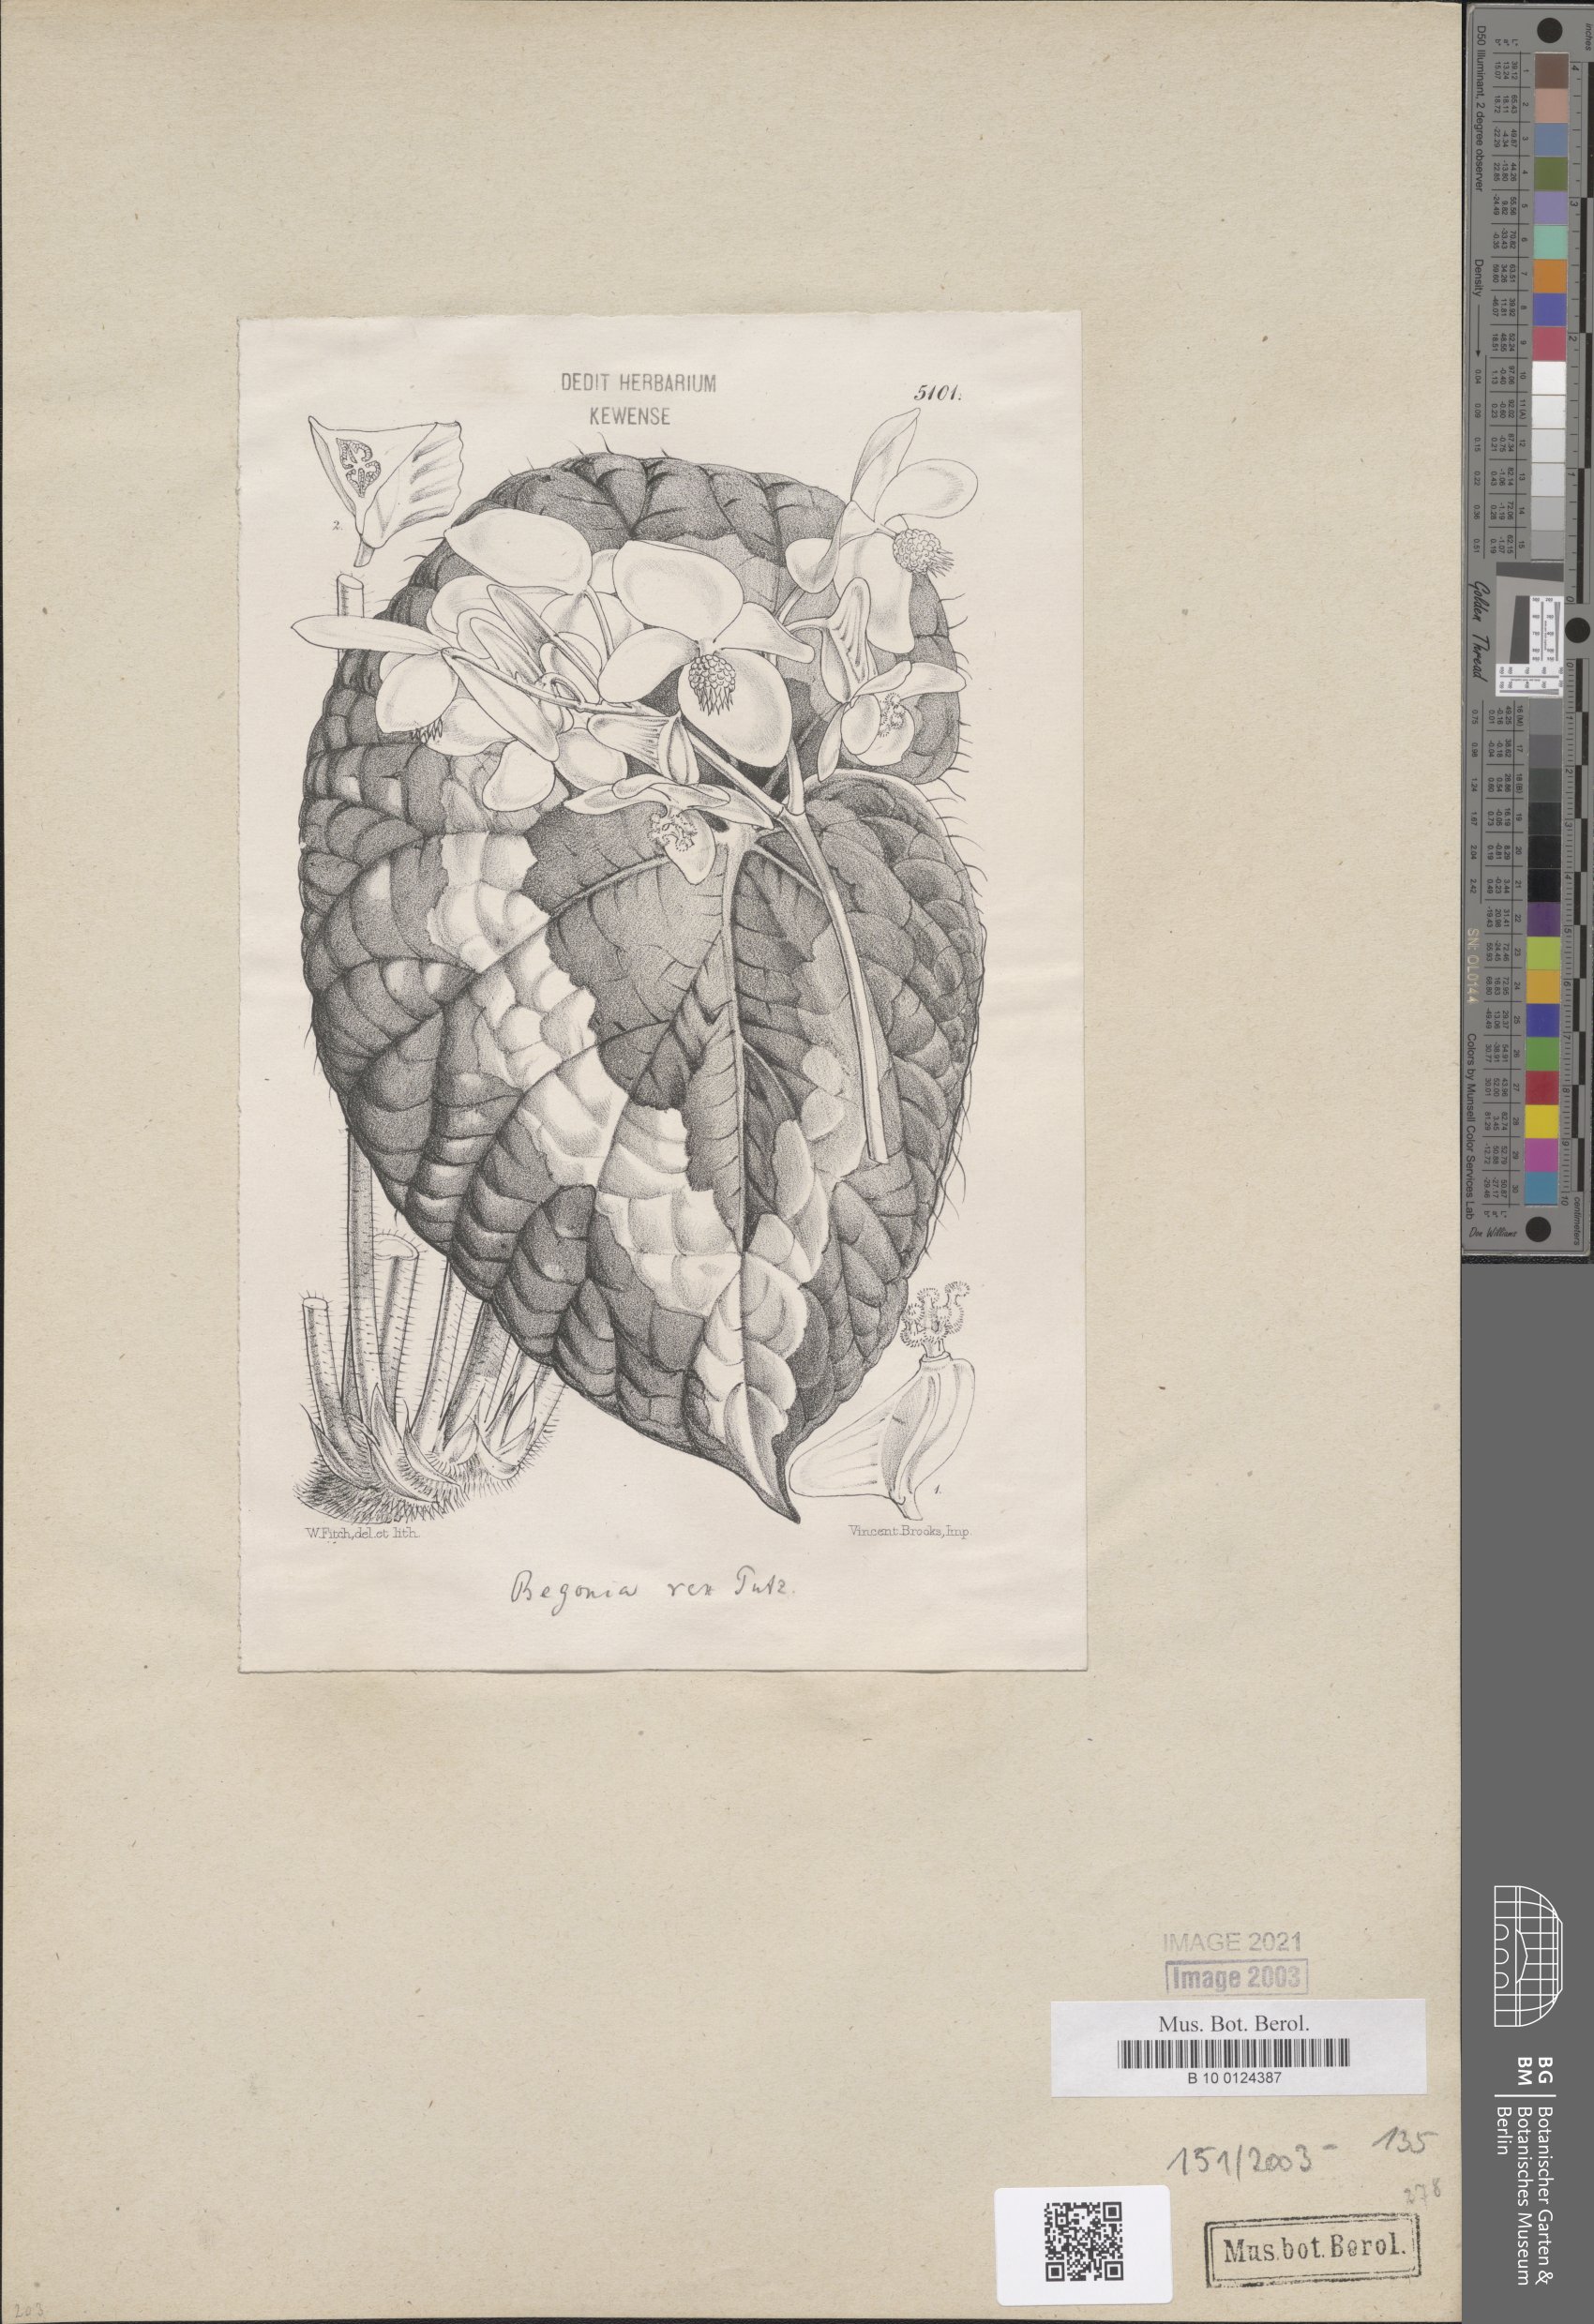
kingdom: Plantae
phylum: Tracheophyta
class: Magnoliopsida
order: Cucurbitales
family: Begoniaceae
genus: Begonia
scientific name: Begonia rex
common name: Painted-leaf begonia
